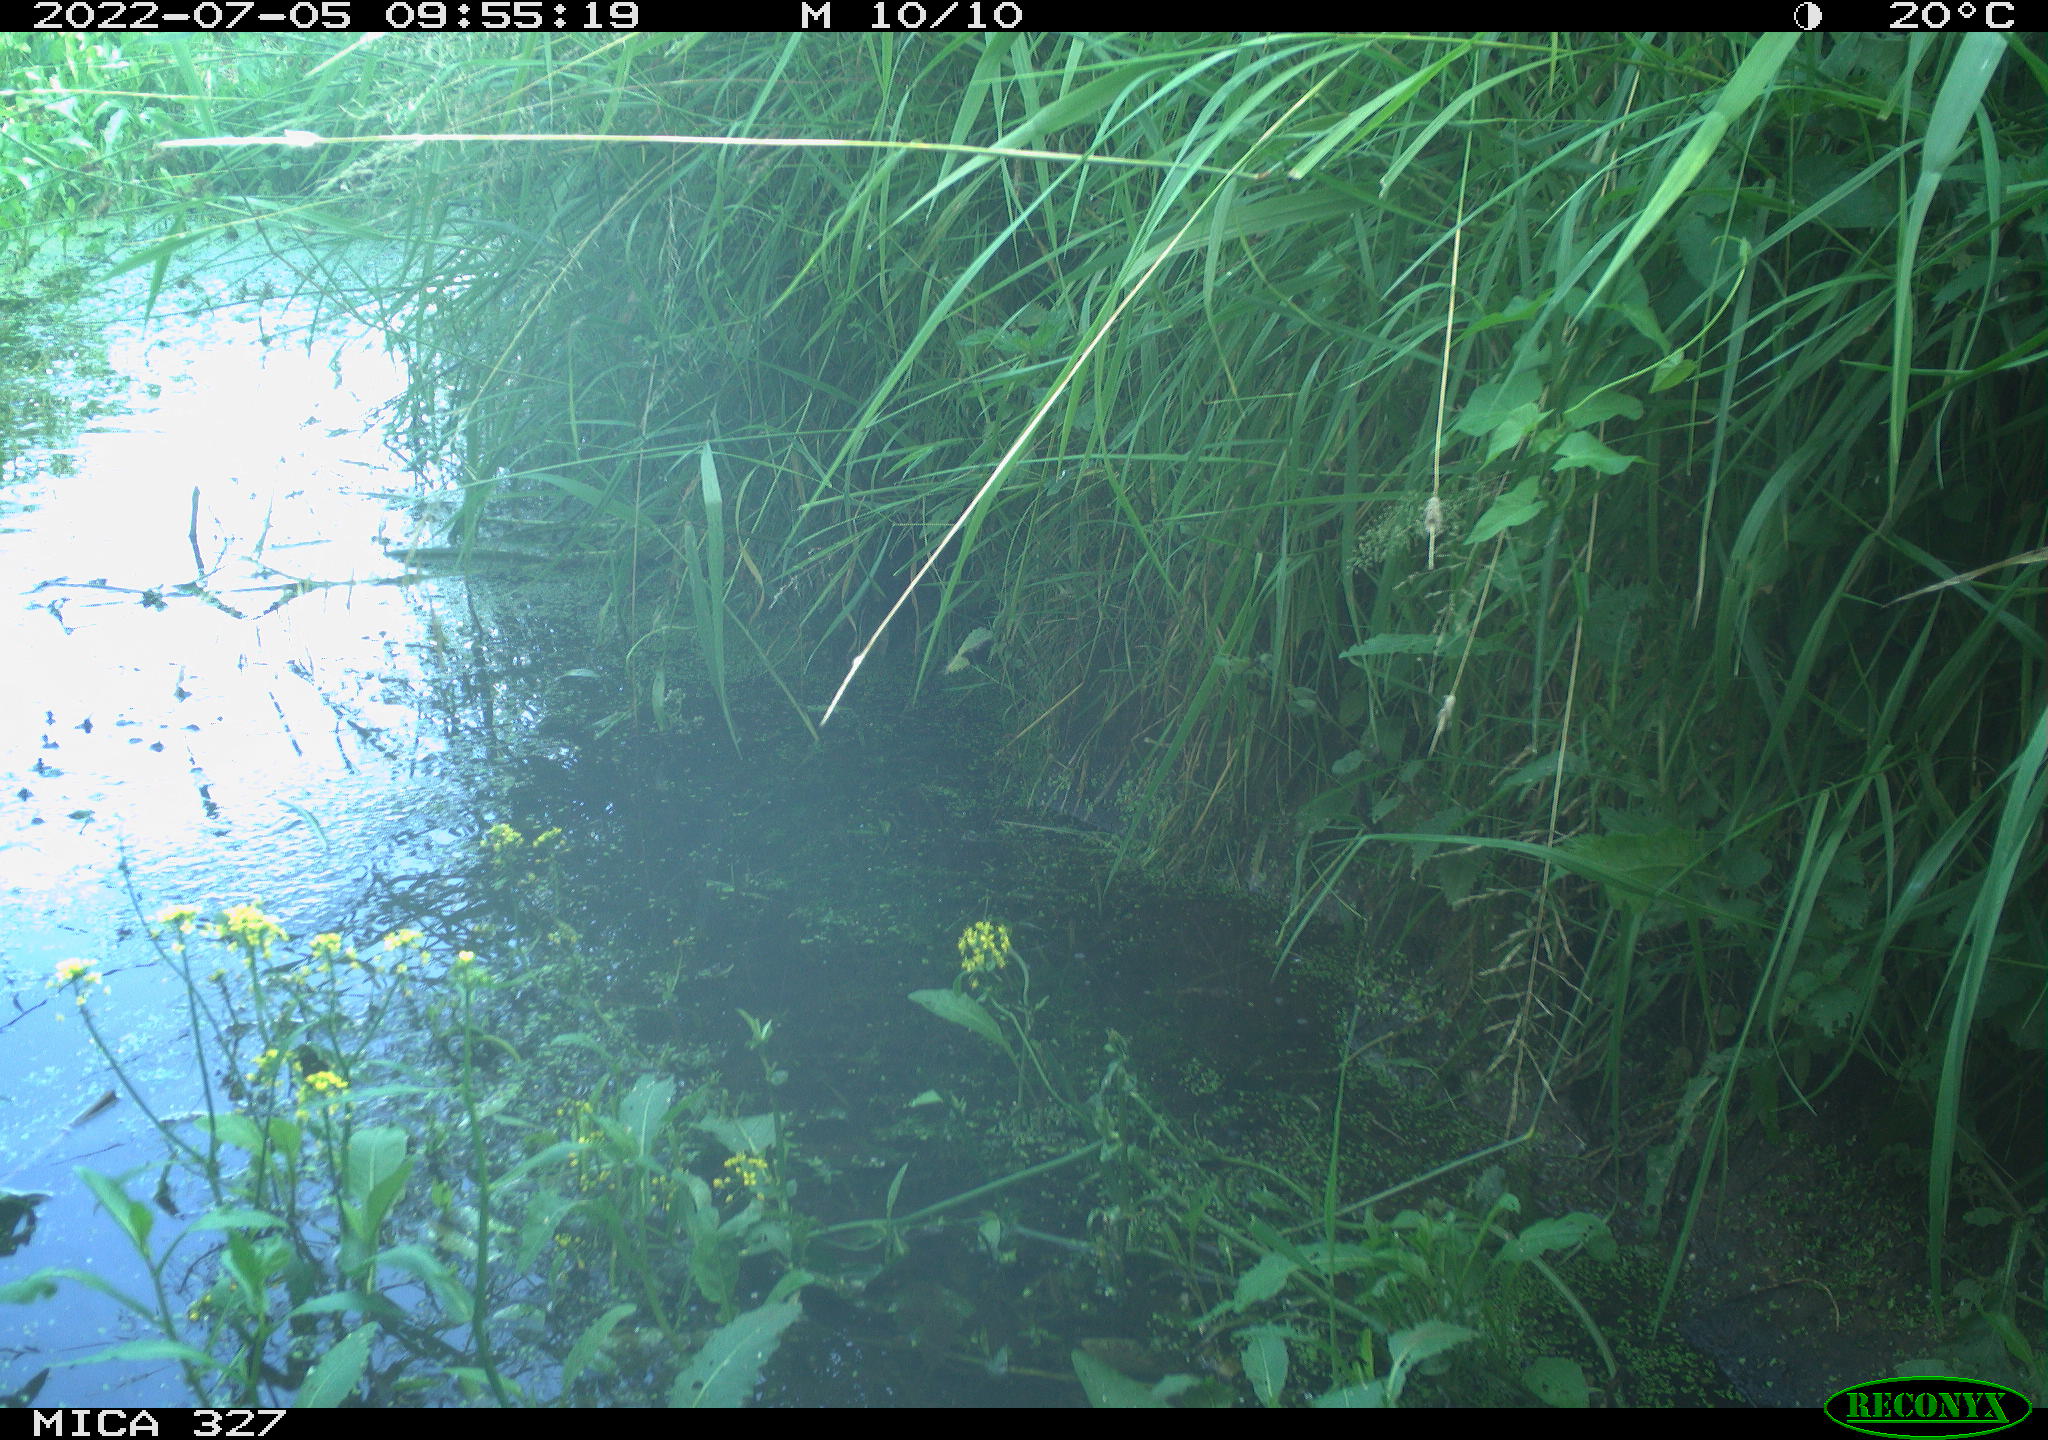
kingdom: Animalia
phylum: Chordata
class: Aves
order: Anseriformes
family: Anatidae
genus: Anas
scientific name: Anas platyrhynchos
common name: Mallard
